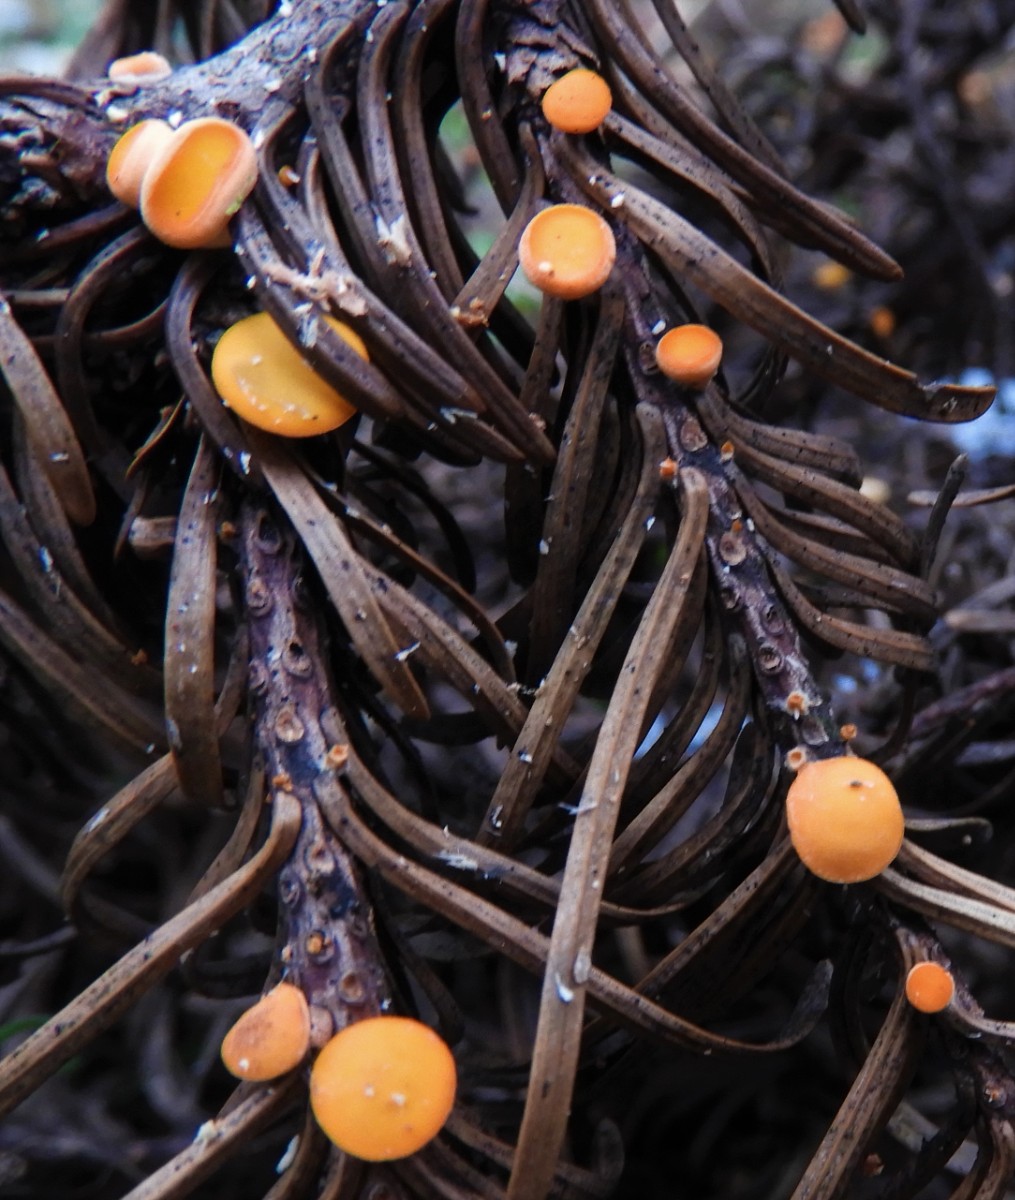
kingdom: Fungi
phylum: Ascomycota
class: Pezizomycetes
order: Pezizales
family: Sarcoscyphaceae
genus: Pithya
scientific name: Pithya vulgaris
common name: stor dukatbæger
